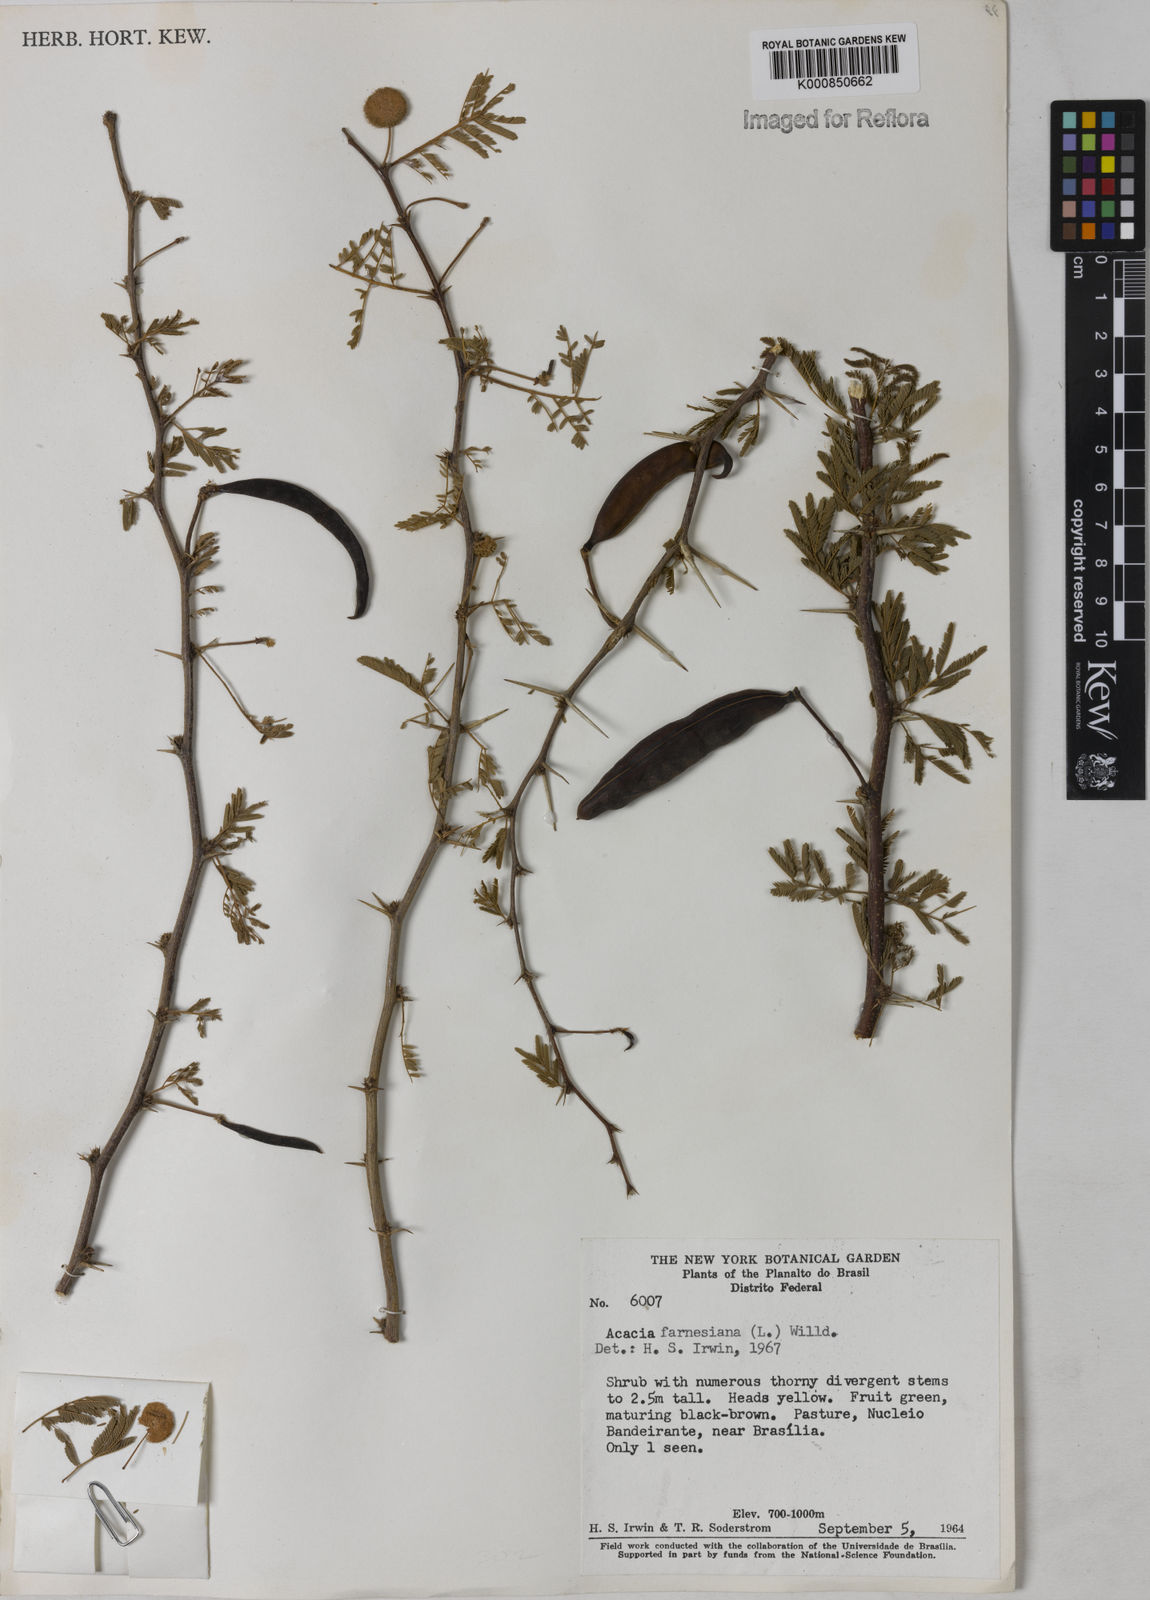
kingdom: Plantae
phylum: Tracheophyta
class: Magnoliopsida
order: Fabales
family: Fabaceae
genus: Vachellia
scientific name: Vachellia farnesiana
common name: Sweet acacia
